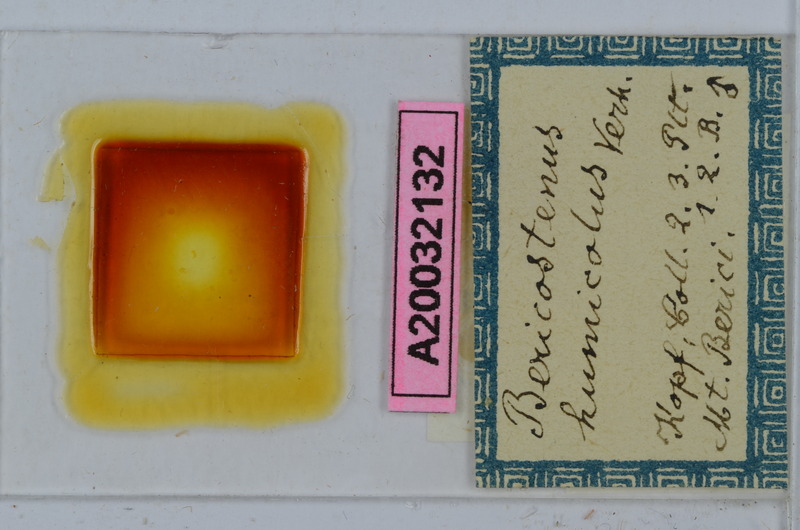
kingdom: Animalia
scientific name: Animalia
